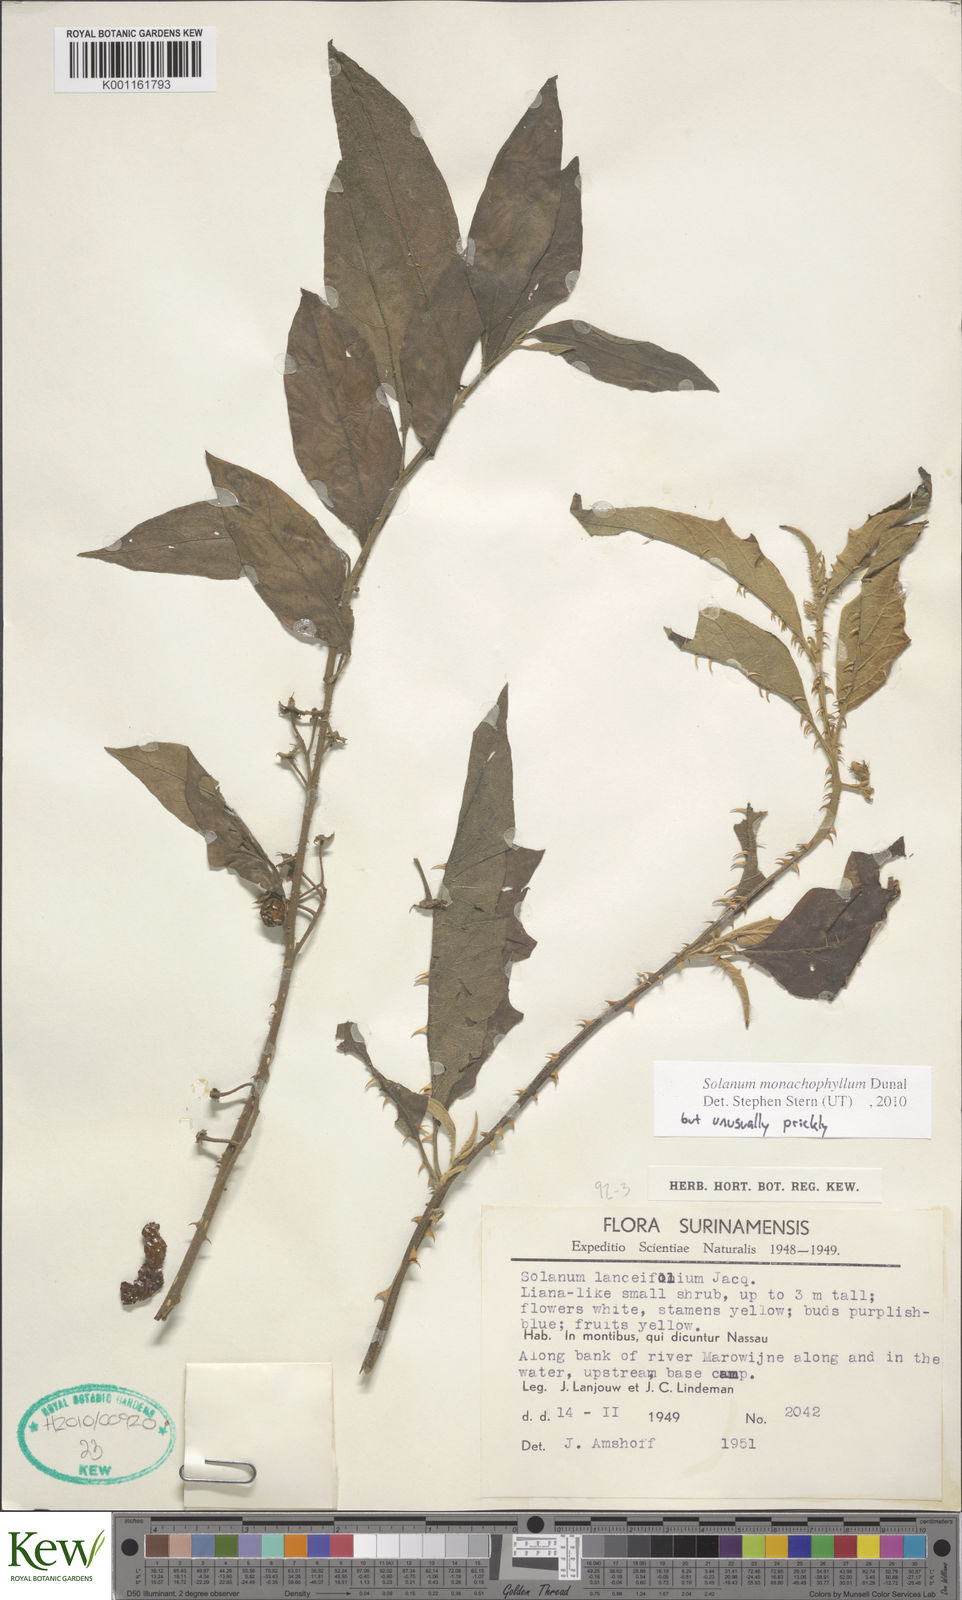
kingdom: Plantae
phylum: Tracheophyta
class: Magnoliopsida
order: Solanales
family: Solanaceae
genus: Solanum
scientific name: Solanum monachophyllum
